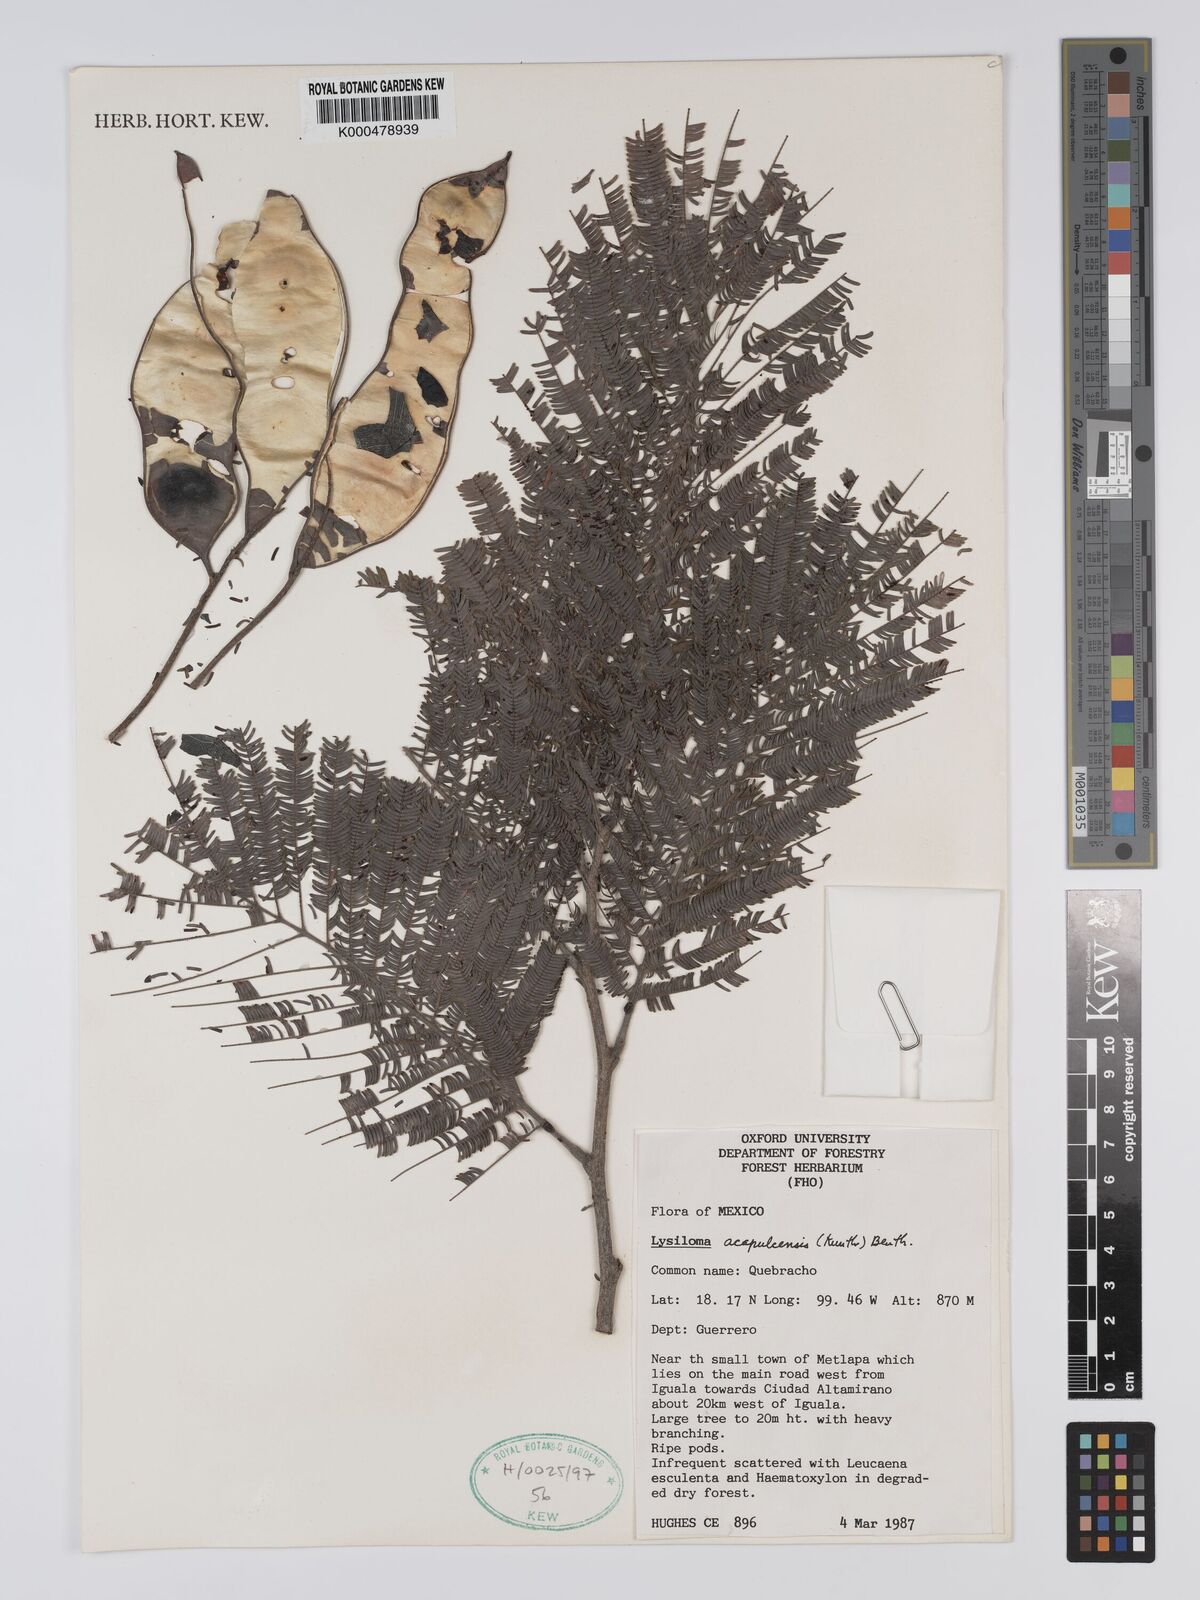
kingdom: Plantae
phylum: Tracheophyta
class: Magnoliopsida
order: Fabales
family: Fabaceae
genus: Lysiloma
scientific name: Lysiloma
